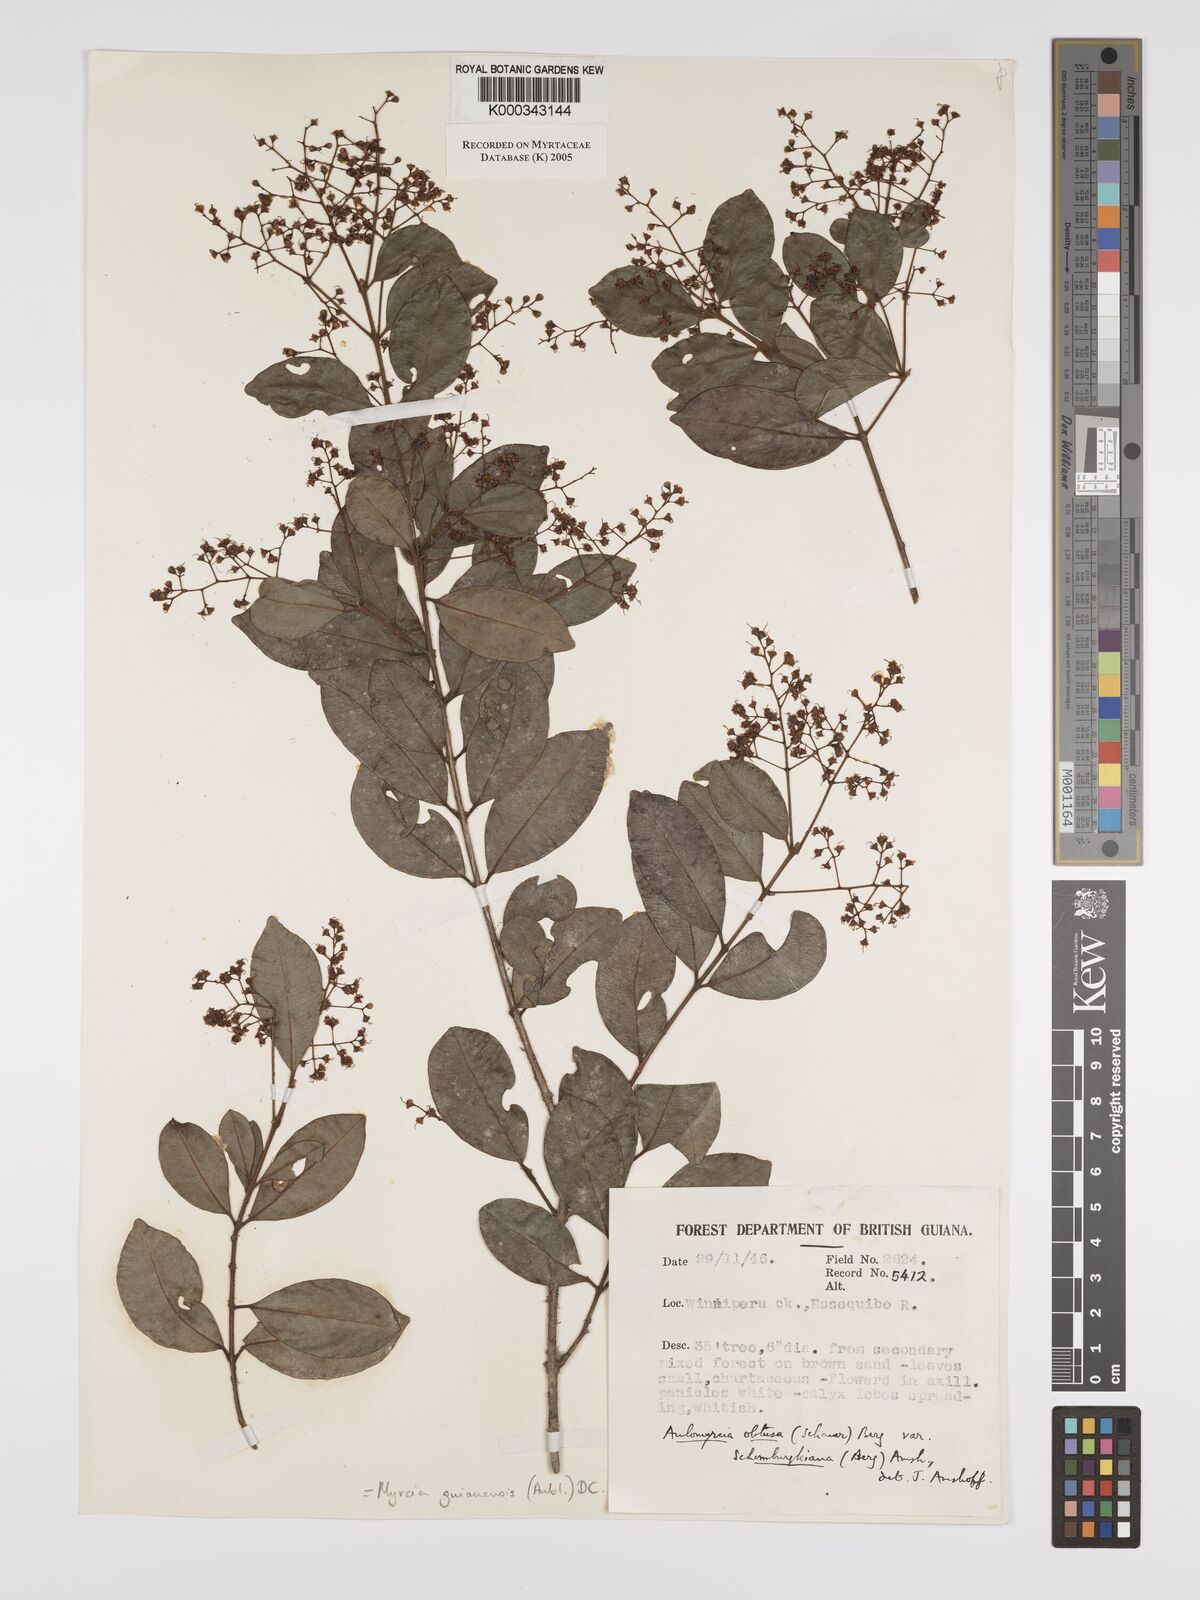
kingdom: Plantae
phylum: Tracheophyta
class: Magnoliopsida
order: Myrtales
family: Myrtaceae
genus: Myrcia
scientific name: Myrcia guianensis
